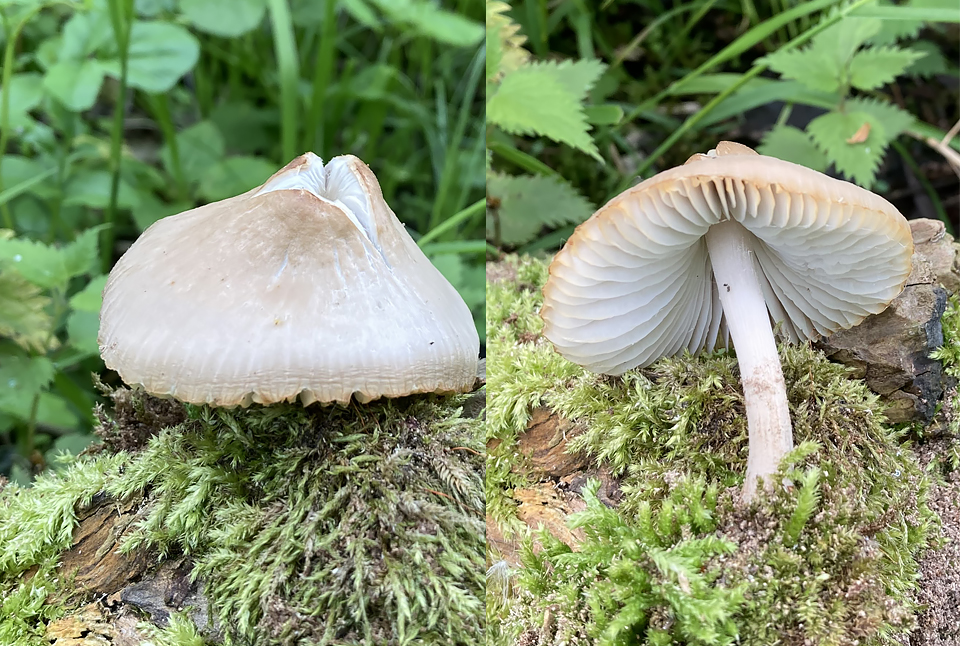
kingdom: Fungi
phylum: Basidiomycota
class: Agaricomycetes
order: Agaricales
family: Mycenaceae
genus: Mycena
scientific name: Mycena niveipes
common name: vår-huesvamp
